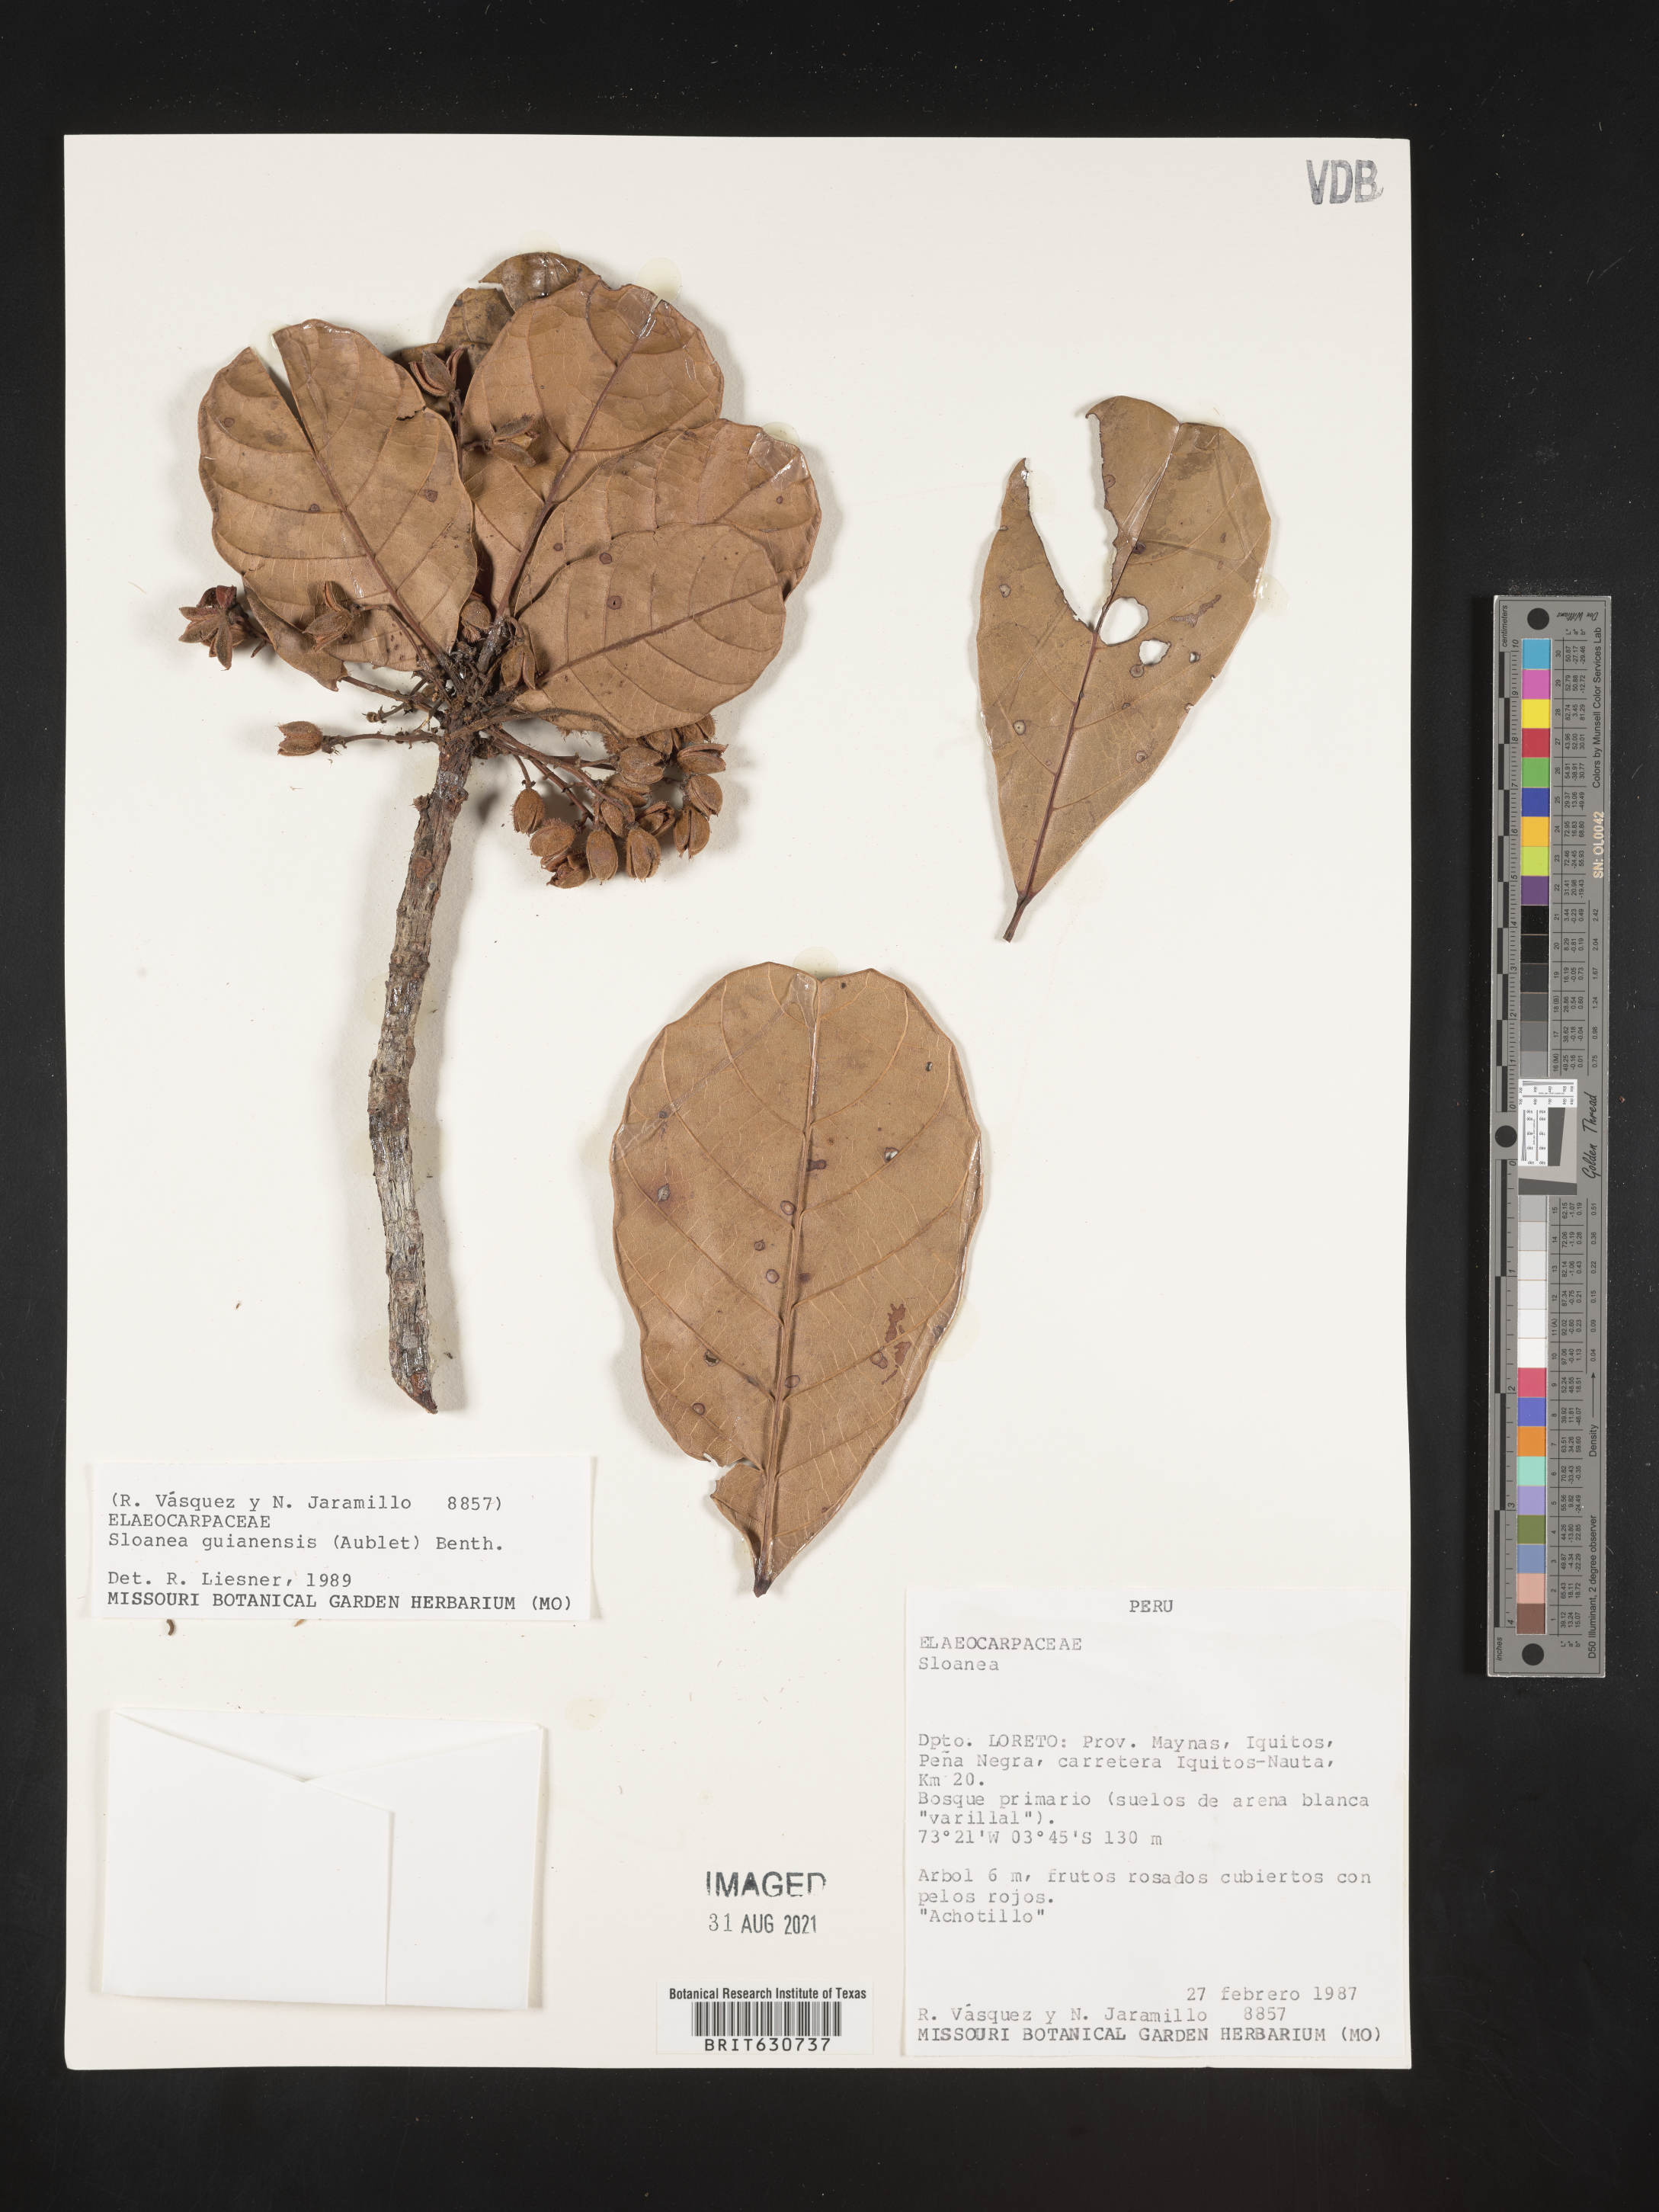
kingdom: Plantae
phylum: Tracheophyta
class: Magnoliopsida
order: Oxalidales
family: Elaeocarpaceae
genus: Sloanea
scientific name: Sloanea
